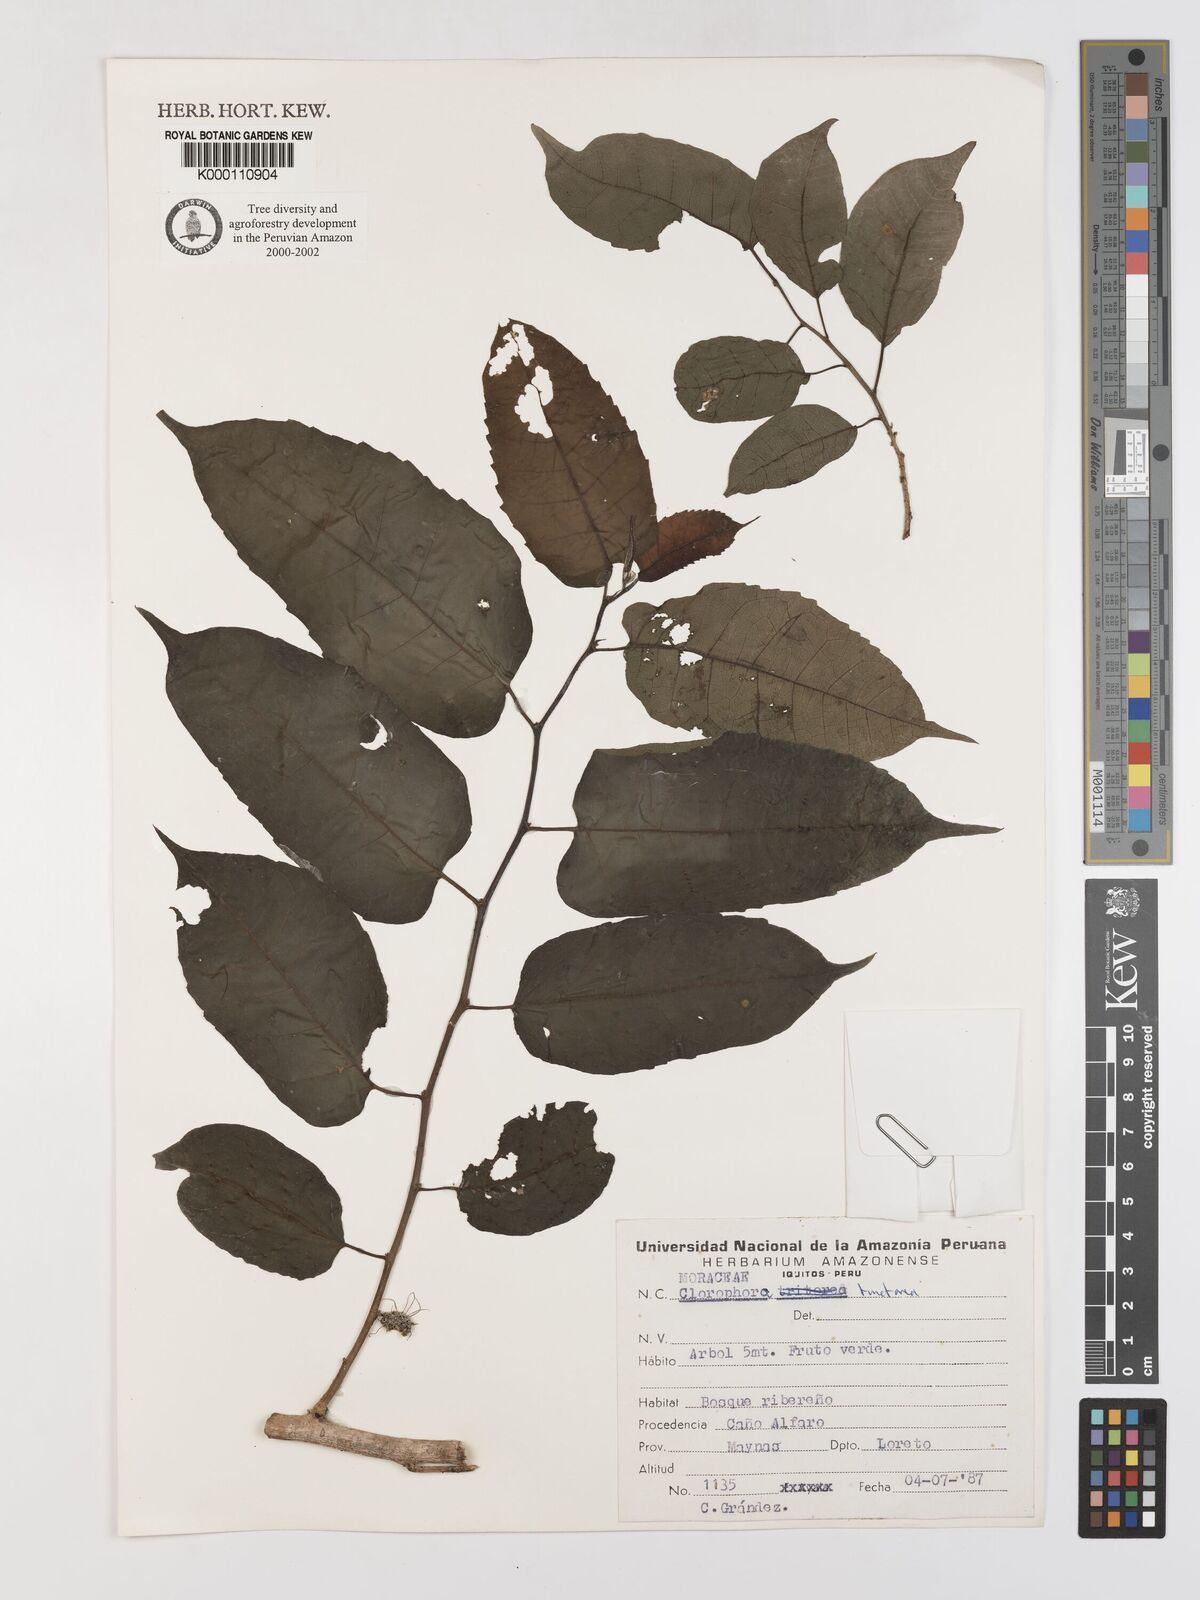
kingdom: Plantae
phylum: Tracheophyta
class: Magnoliopsida
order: Rosales
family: Moraceae
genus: Maclura
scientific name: Maclura tinctoria
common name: Old fustic
